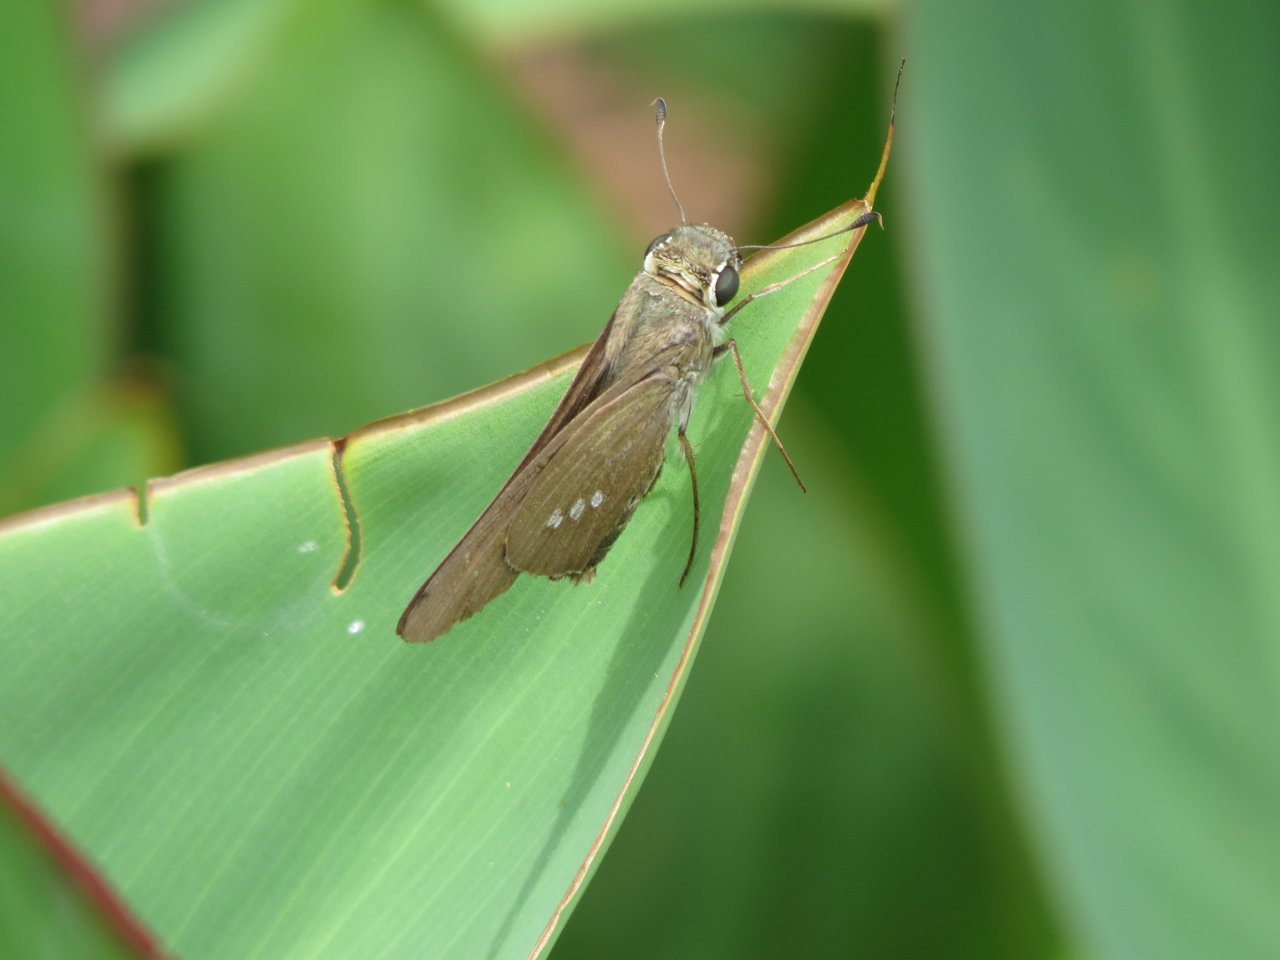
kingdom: Animalia
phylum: Arthropoda
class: Insecta
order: Lepidoptera
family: Hesperiidae
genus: Calpodes
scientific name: Calpodes ethlius
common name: Brazilian Skipper
